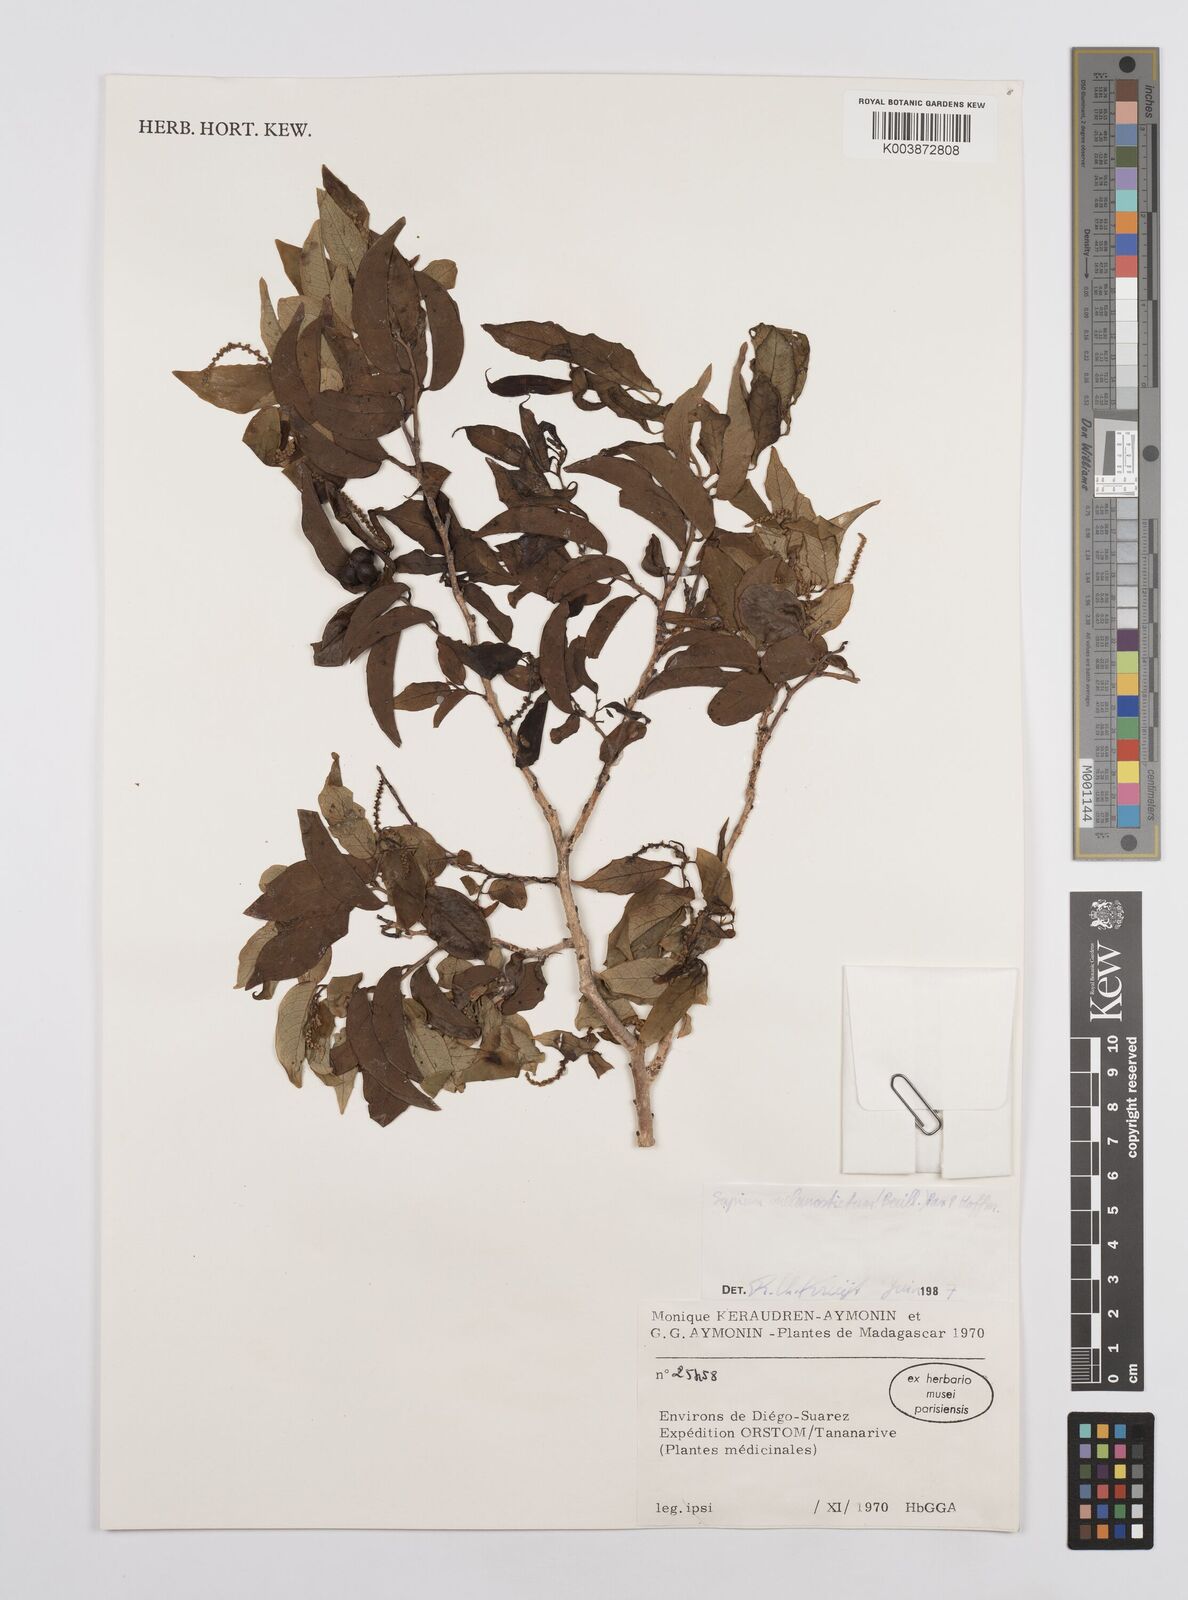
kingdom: Plantae
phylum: Tracheophyta
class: Magnoliopsida
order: Malpighiales
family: Euphorbiaceae
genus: Sclerocroton
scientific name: Sclerocroton melanostictus
